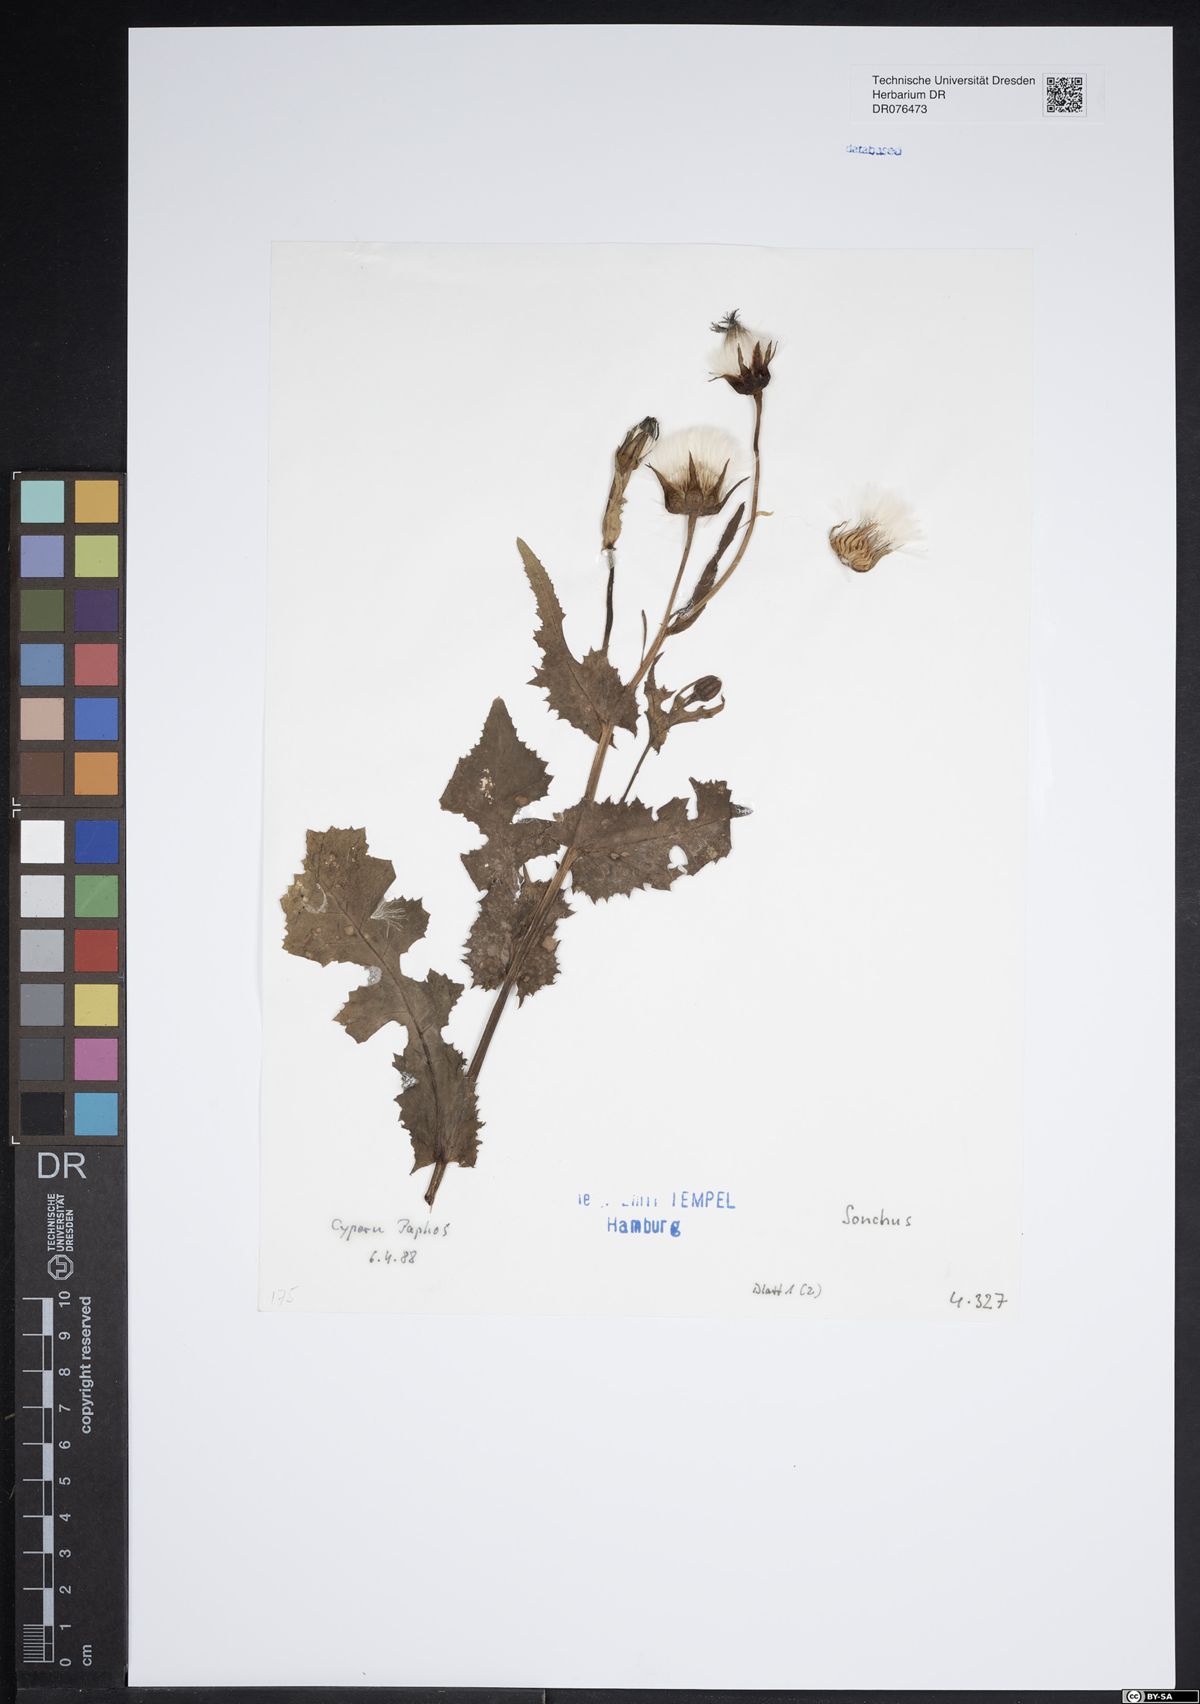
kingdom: Plantae
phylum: Tracheophyta
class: Magnoliopsida
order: Asterales
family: Asteraceae
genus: Sonchus
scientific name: Sonchus
